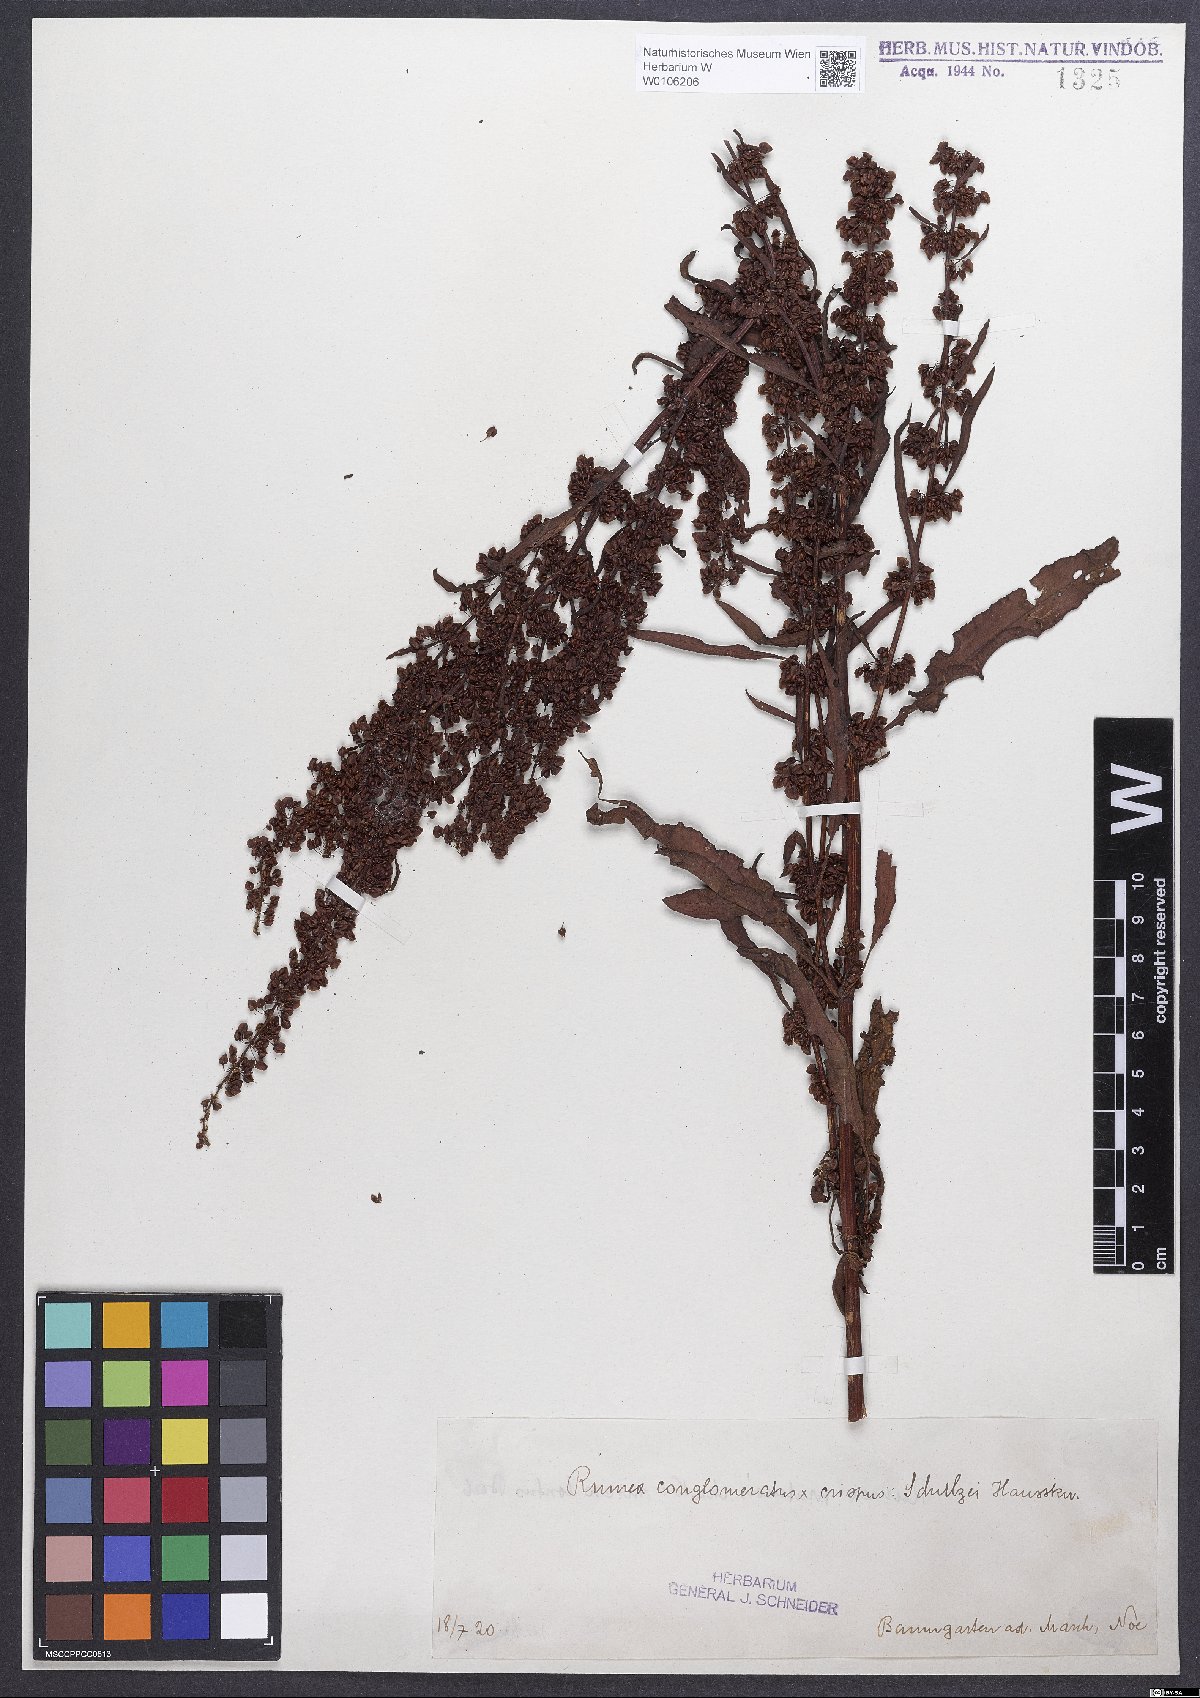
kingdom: Plantae
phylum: Tracheophyta
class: Magnoliopsida
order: Caryophyllales
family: Polygonaceae
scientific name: Polygonaceae
